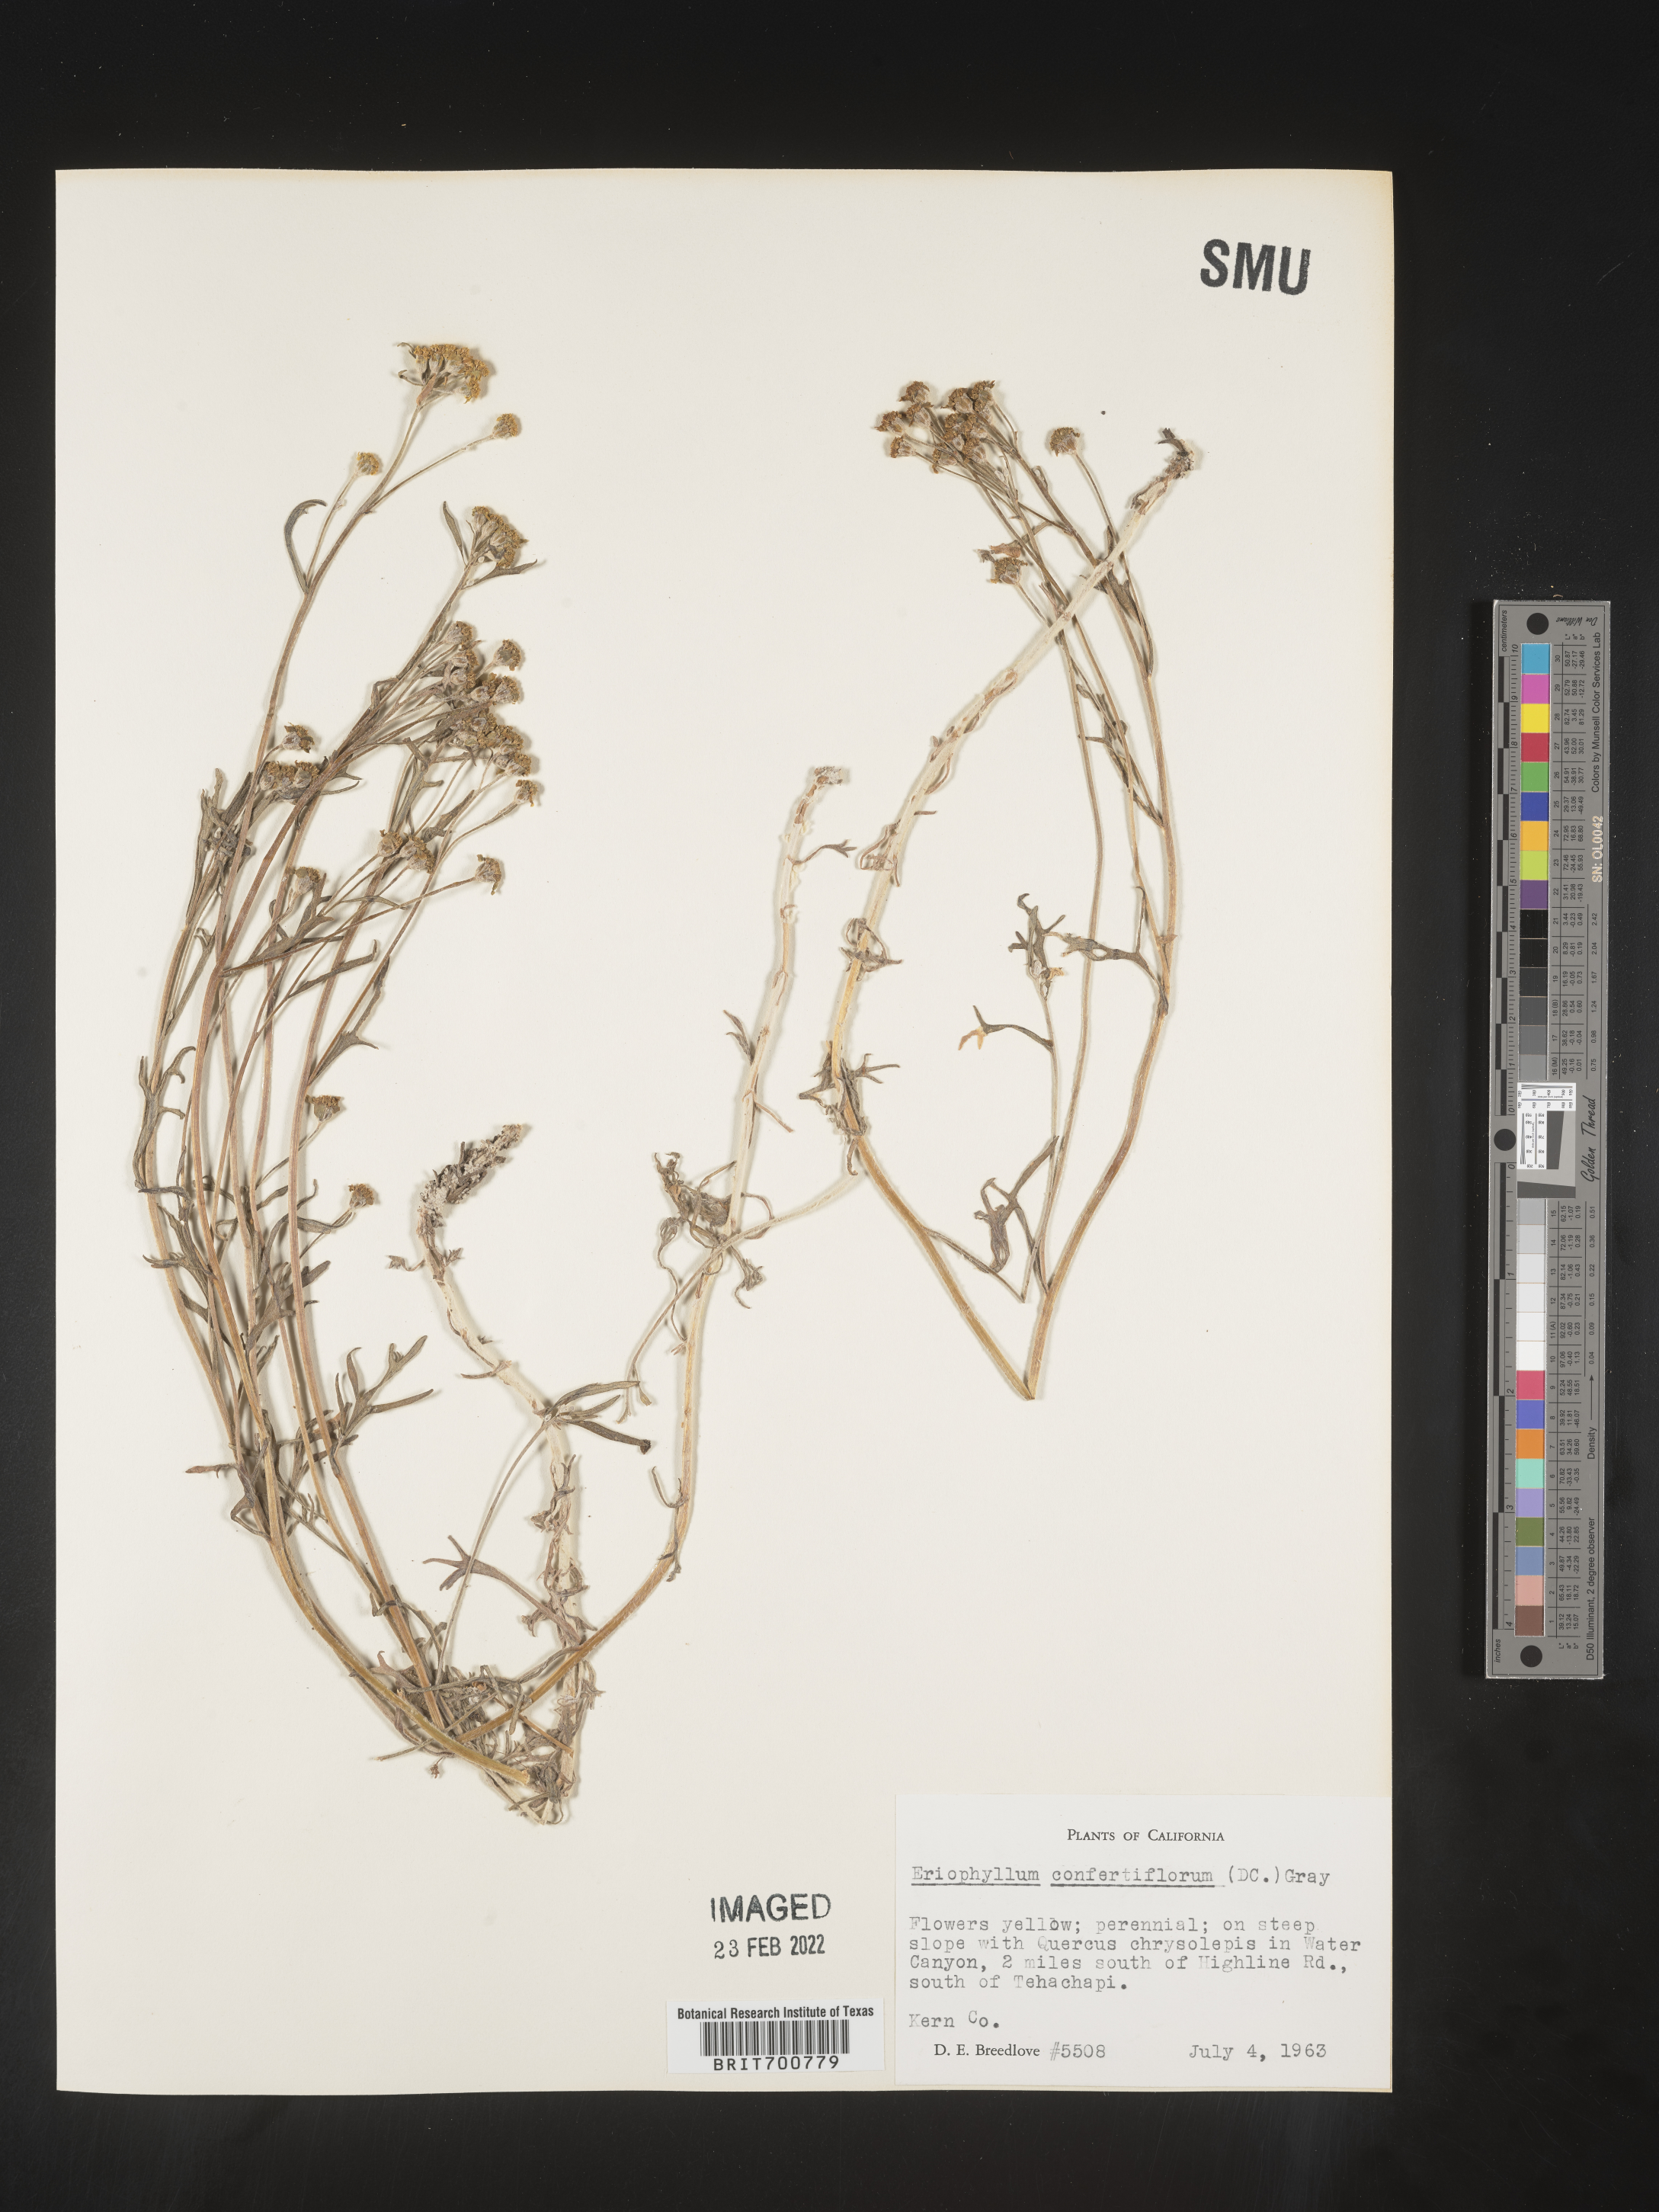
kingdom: Plantae
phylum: Tracheophyta
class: Magnoliopsida
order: Asterales
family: Asteraceae
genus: Eriophyllum
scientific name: Eriophyllum confertiflorum
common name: Golden-yarrow
